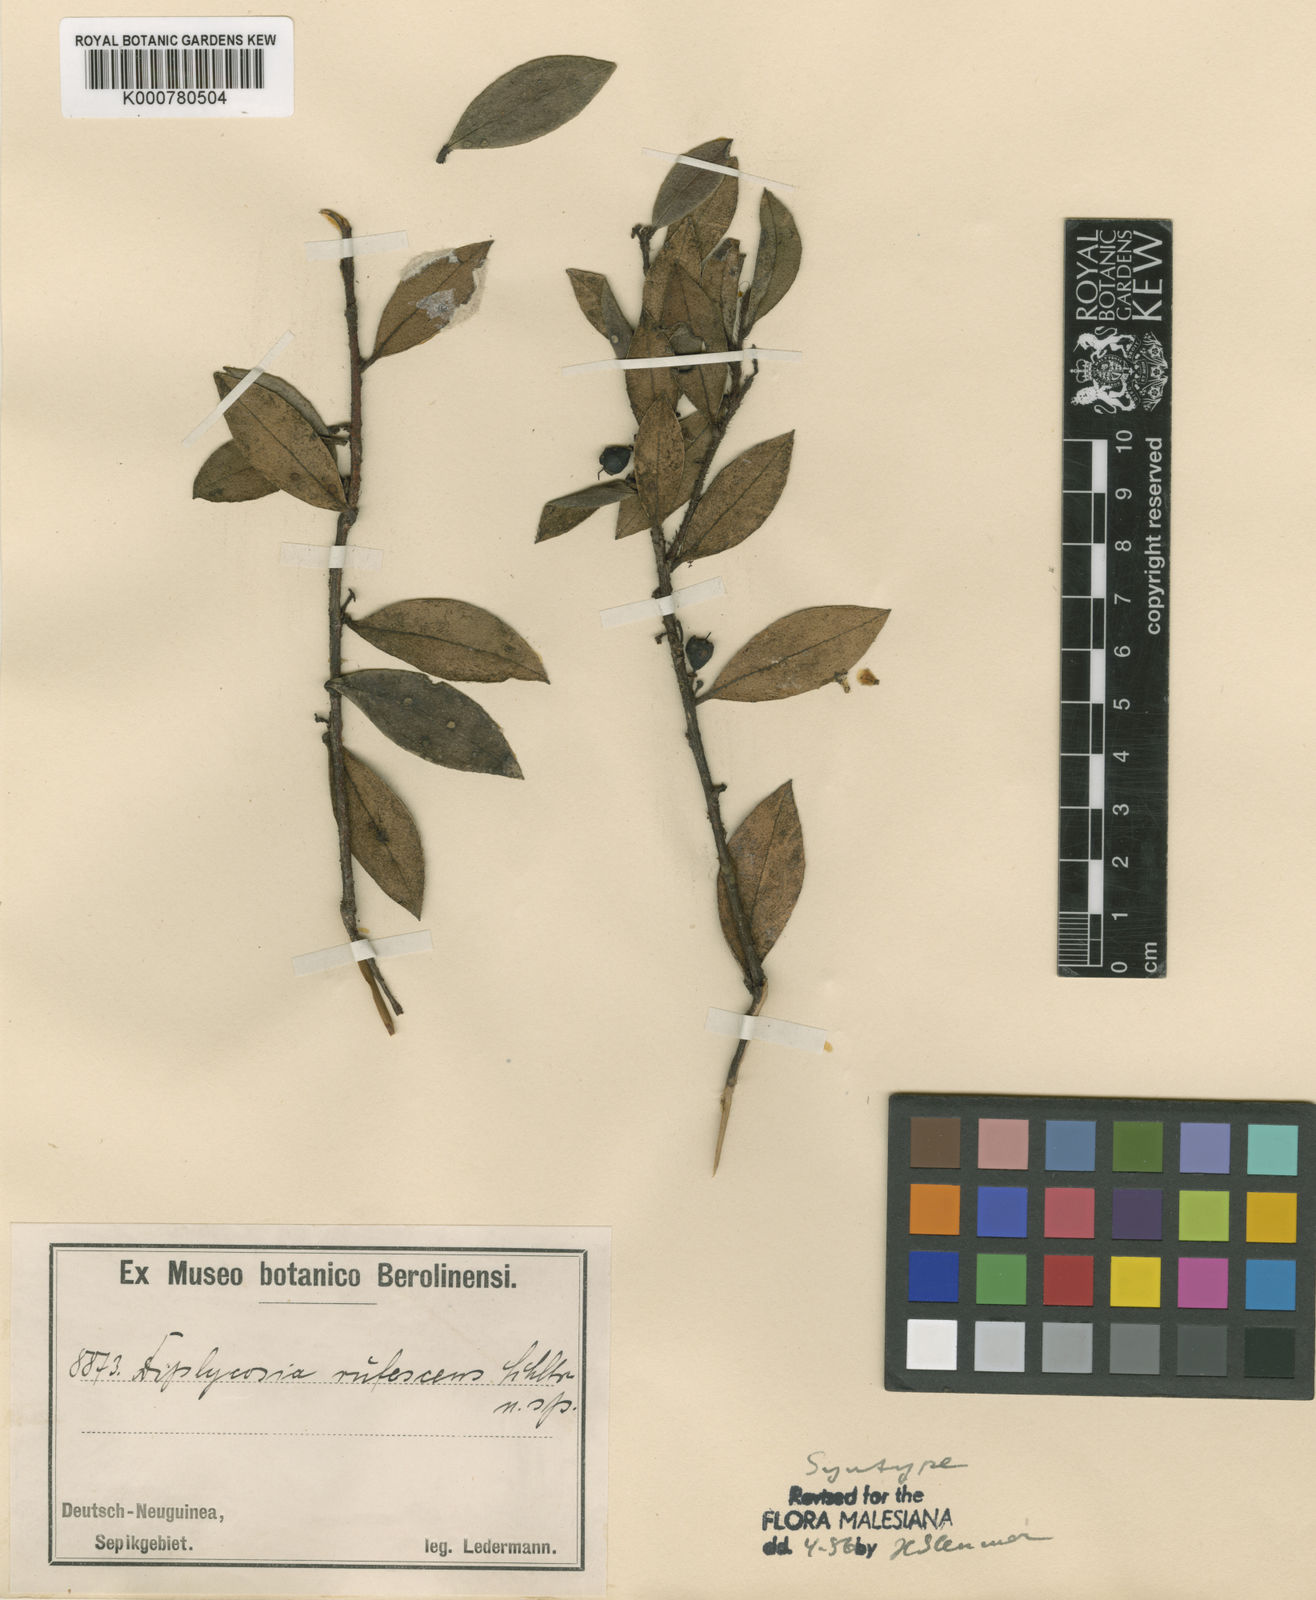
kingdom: Plantae
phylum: Tracheophyta
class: Magnoliopsida
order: Ericales
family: Ericaceae
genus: Gaultheria
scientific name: Gaultheria sepikensis
